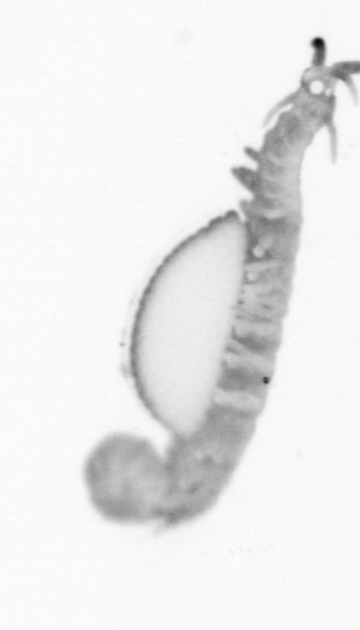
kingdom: Animalia
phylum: Annelida
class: Polychaeta
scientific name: Polychaeta
